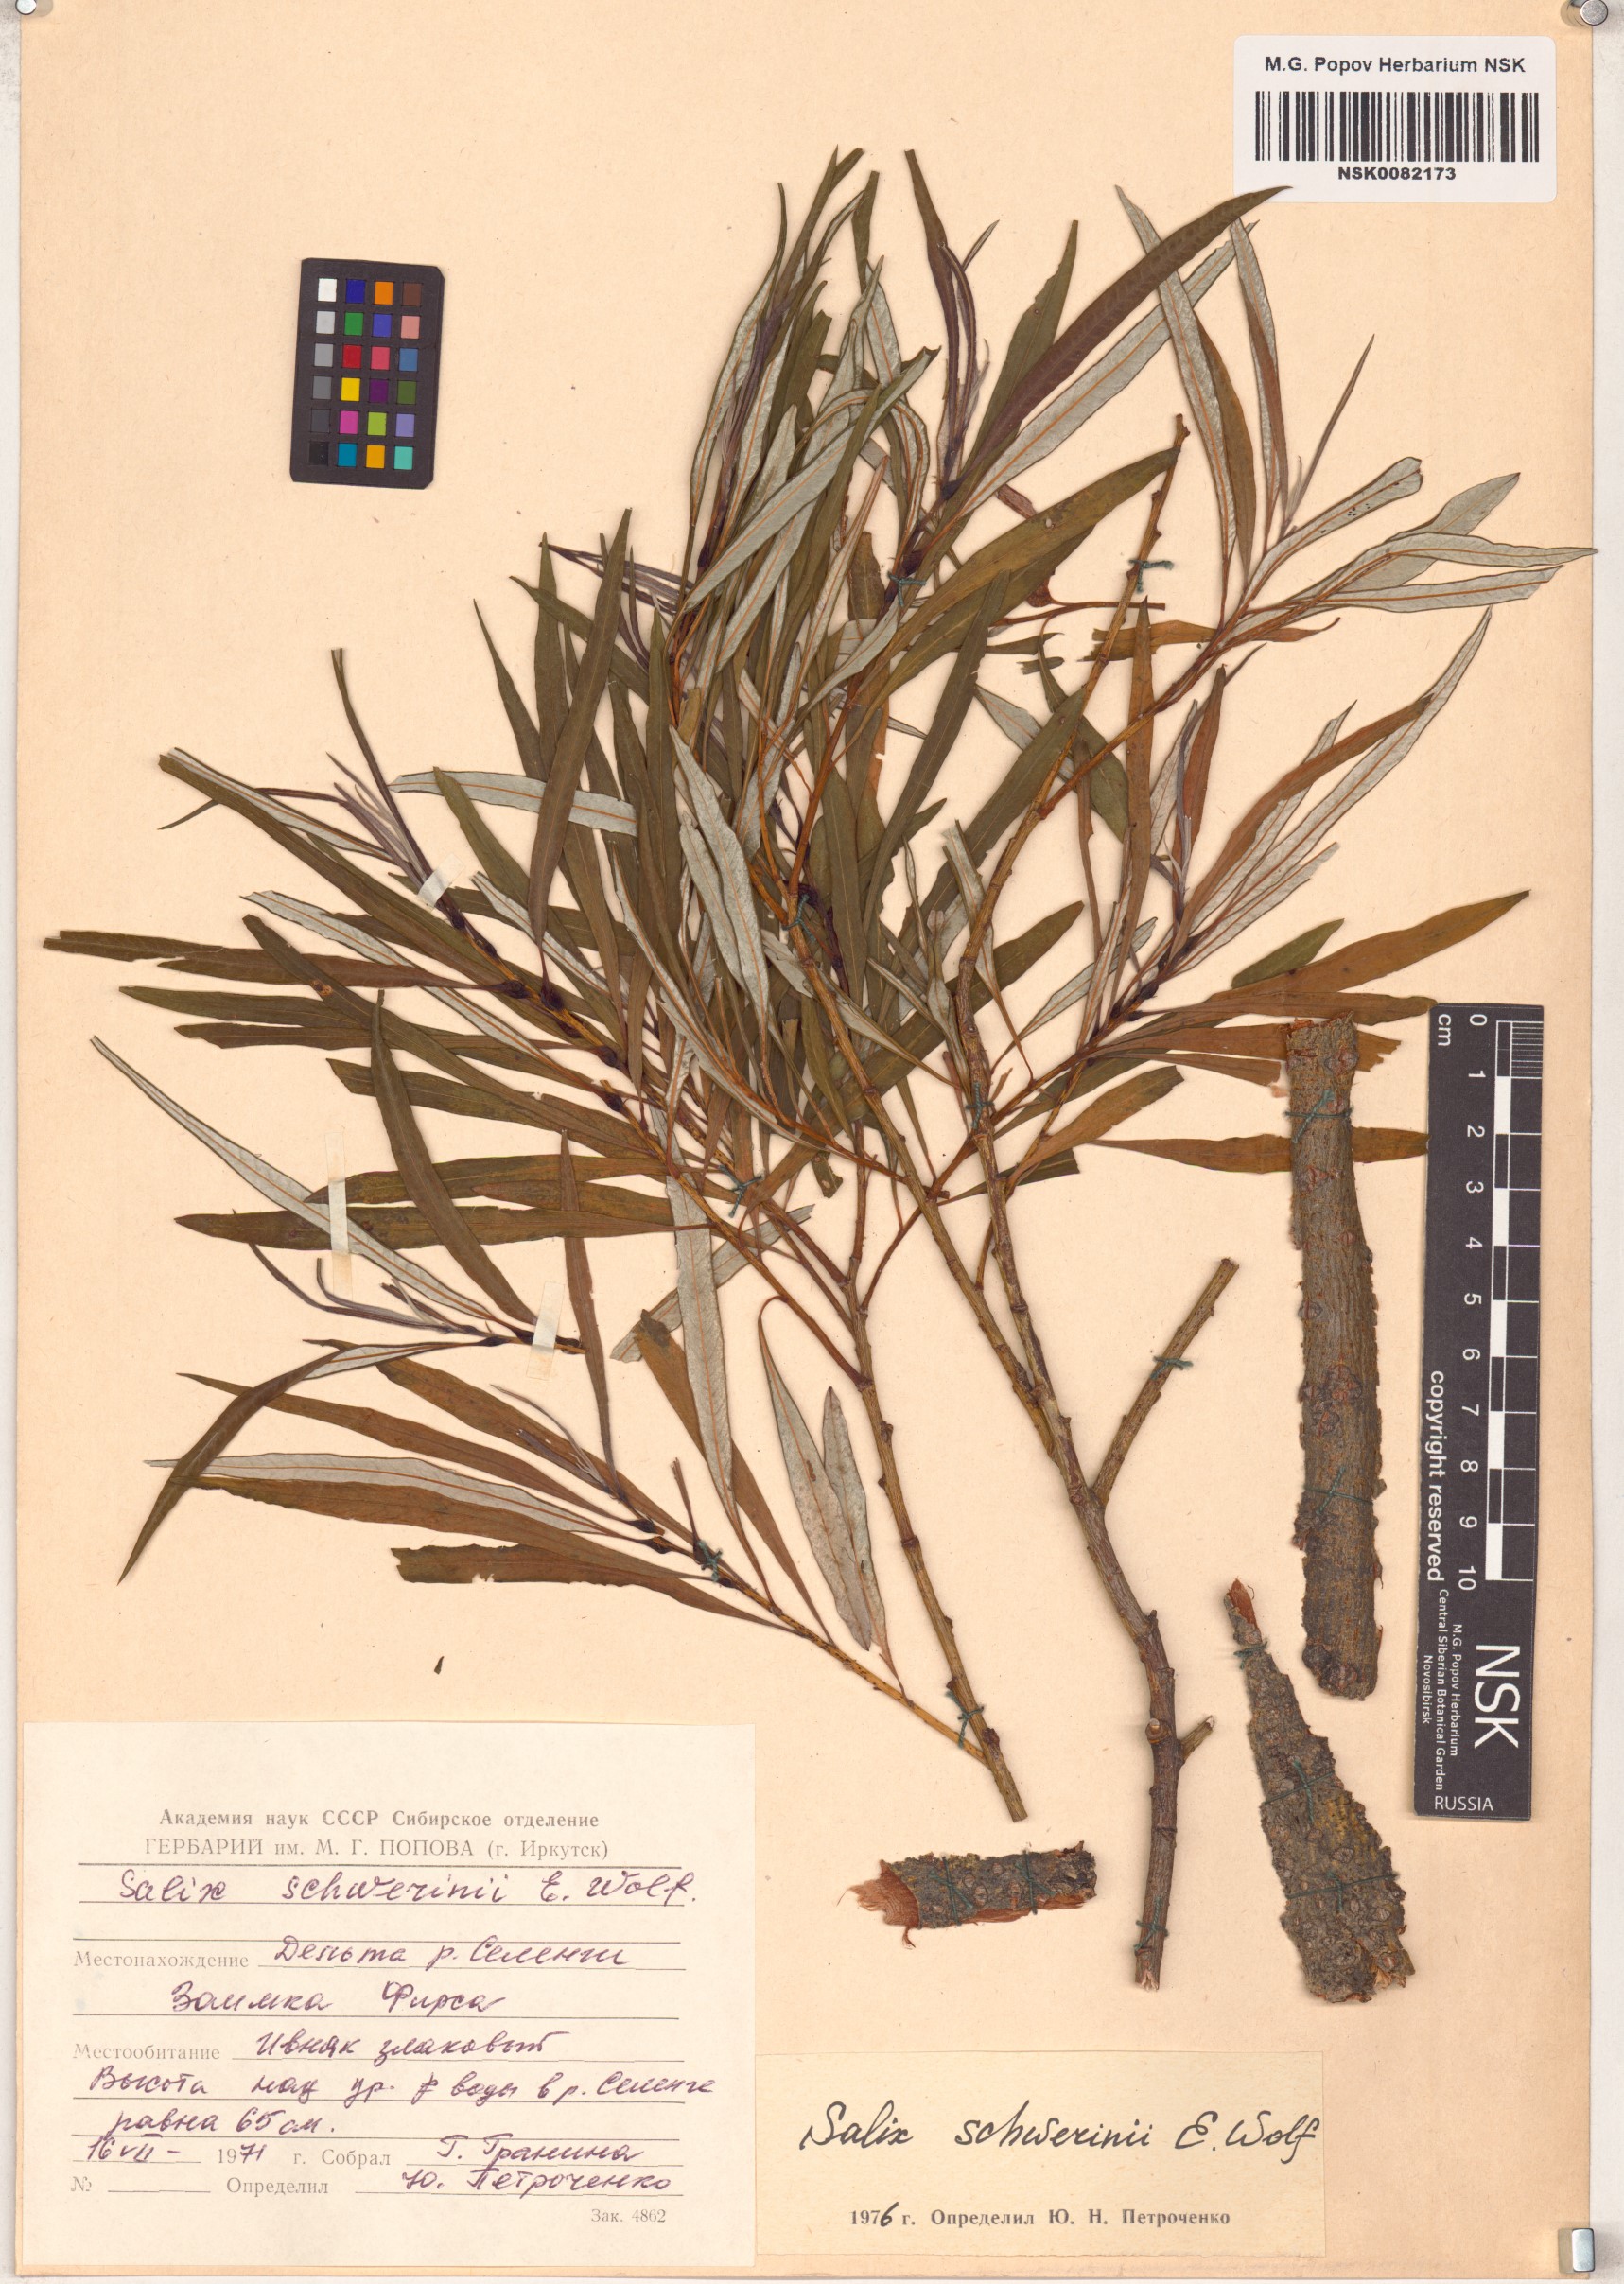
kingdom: Plantae
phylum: Tracheophyta
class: Magnoliopsida
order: Malpighiales
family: Salicaceae
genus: Salix
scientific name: Salix schwerinii
